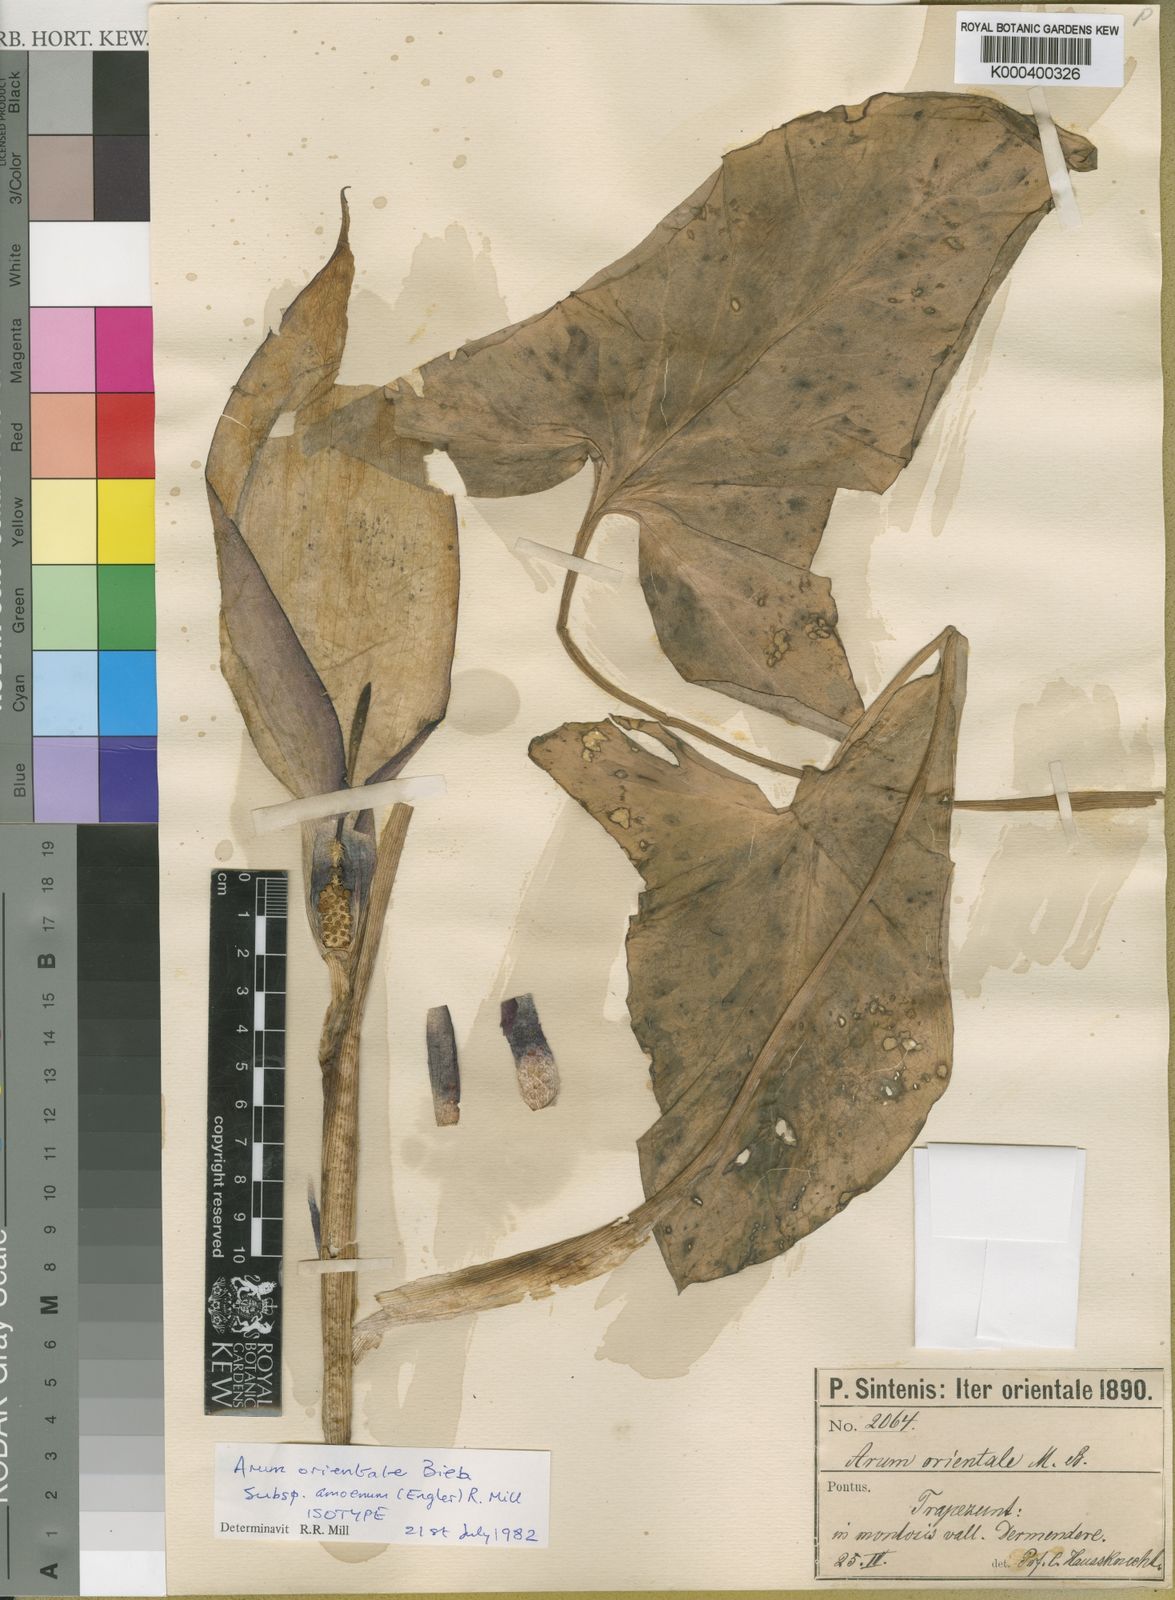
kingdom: Plantae
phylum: Tracheophyta
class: Liliopsida
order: Alismatales
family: Araceae
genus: Arum
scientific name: Arum orientale
